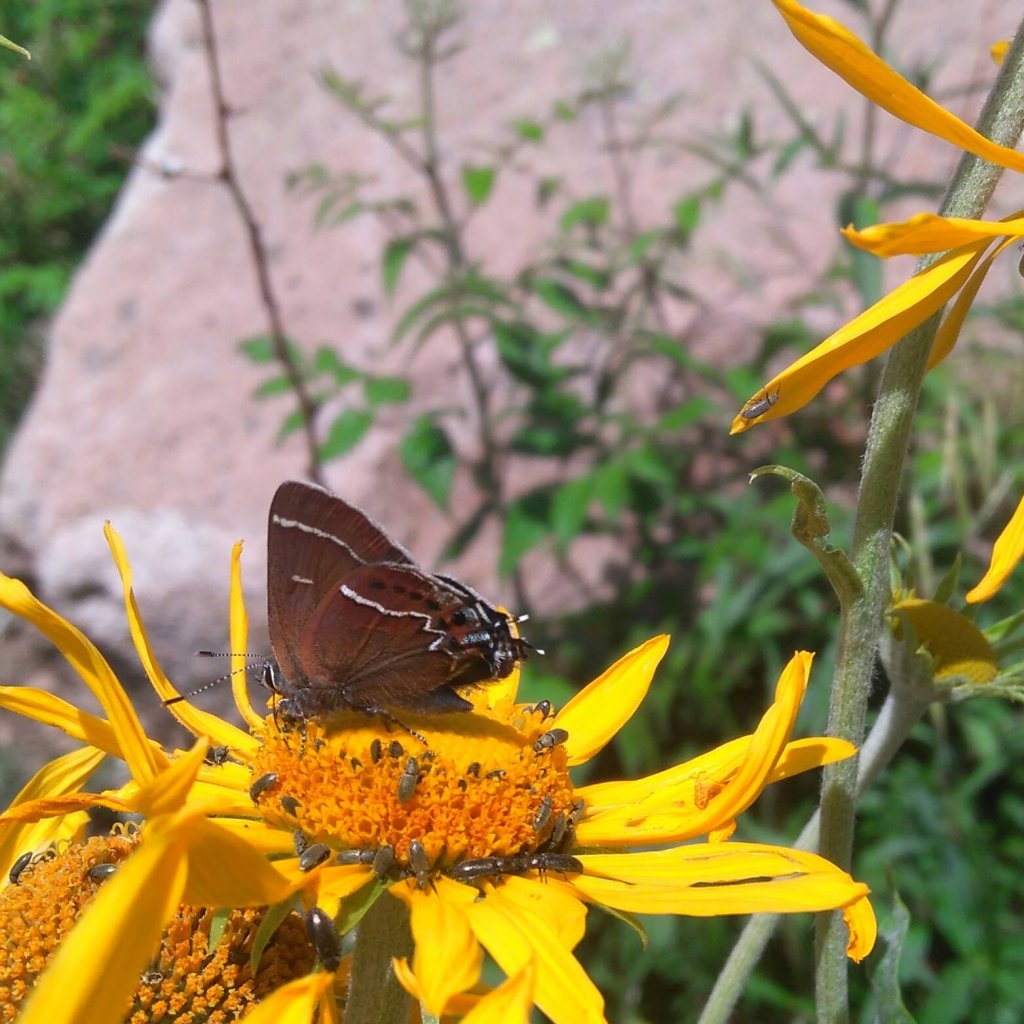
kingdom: Animalia
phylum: Arthropoda
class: Insecta
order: Lepidoptera
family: Lycaenidae
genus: Mitoura
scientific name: Mitoura spinetorum
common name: Thicket Hairstreak
